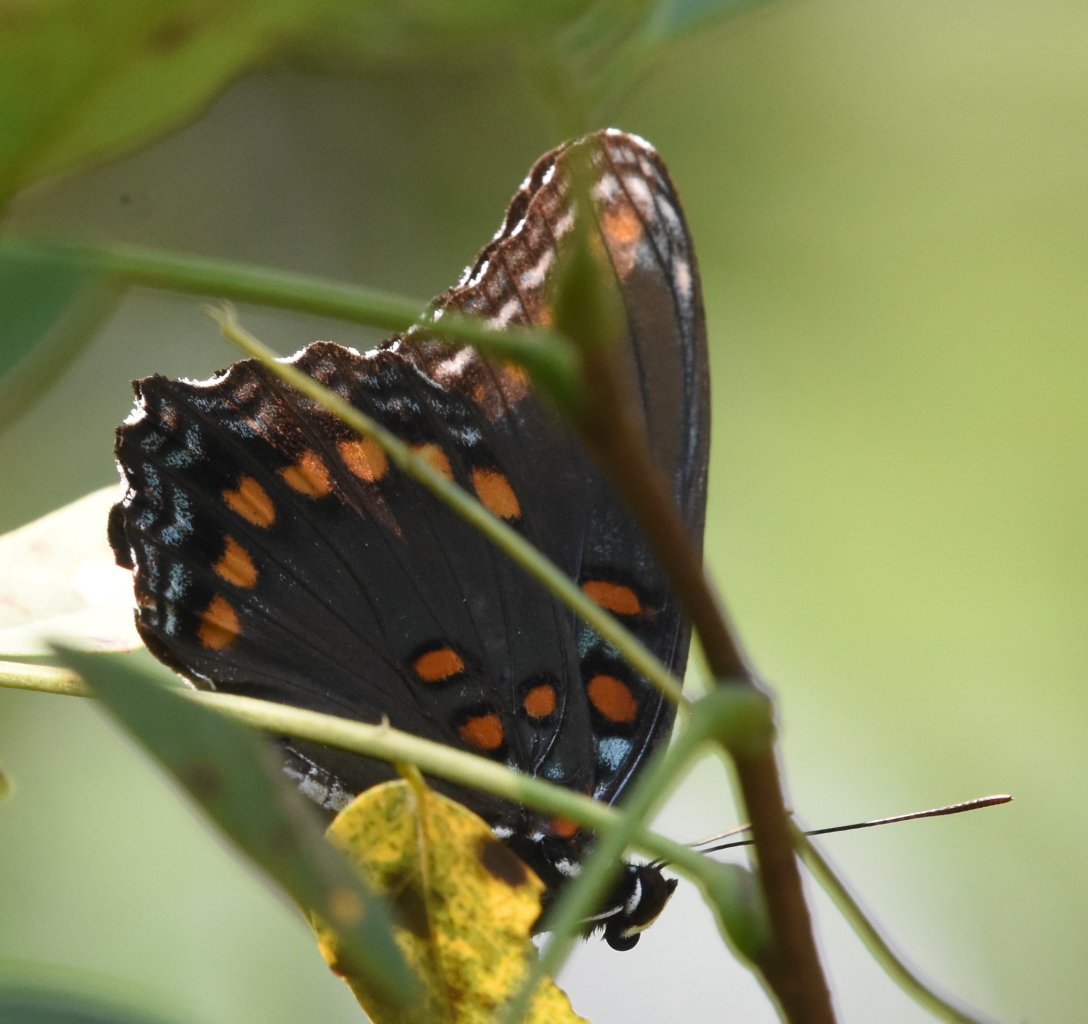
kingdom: Animalia
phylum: Arthropoda
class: Insecta
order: Lepidoptera
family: Nymphalidae
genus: Limenitis
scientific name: Limenitis astyanax
